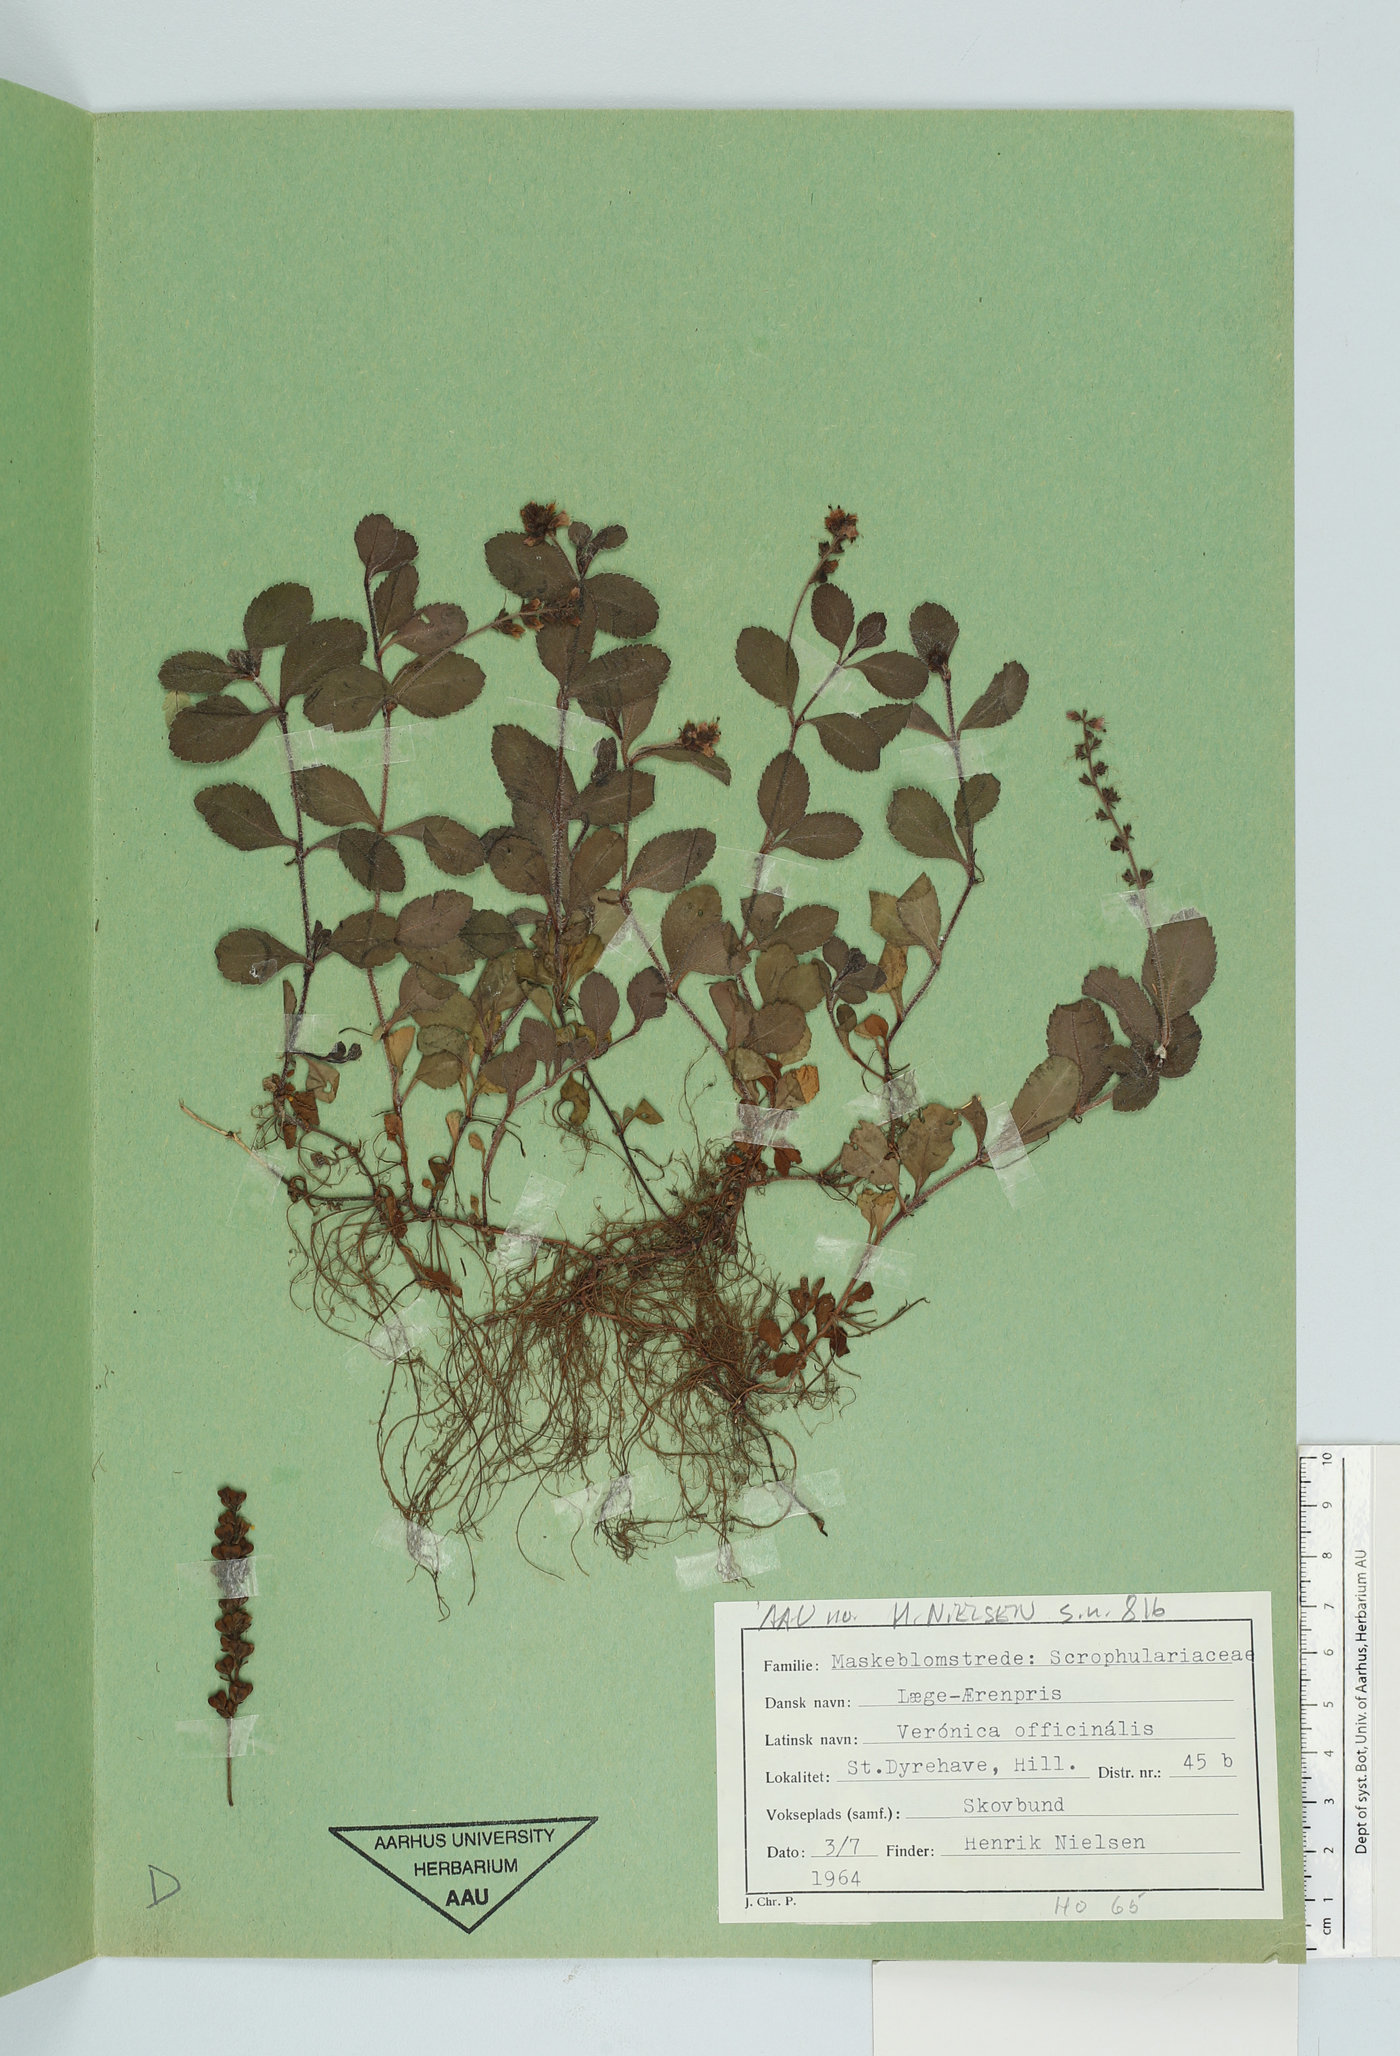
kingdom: Plantae
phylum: Tracheophyta
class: Magnoliopsida
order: Lamiales
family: Plantaginaceae
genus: Veronica
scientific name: Veronica officinalis
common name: Common speedwell
